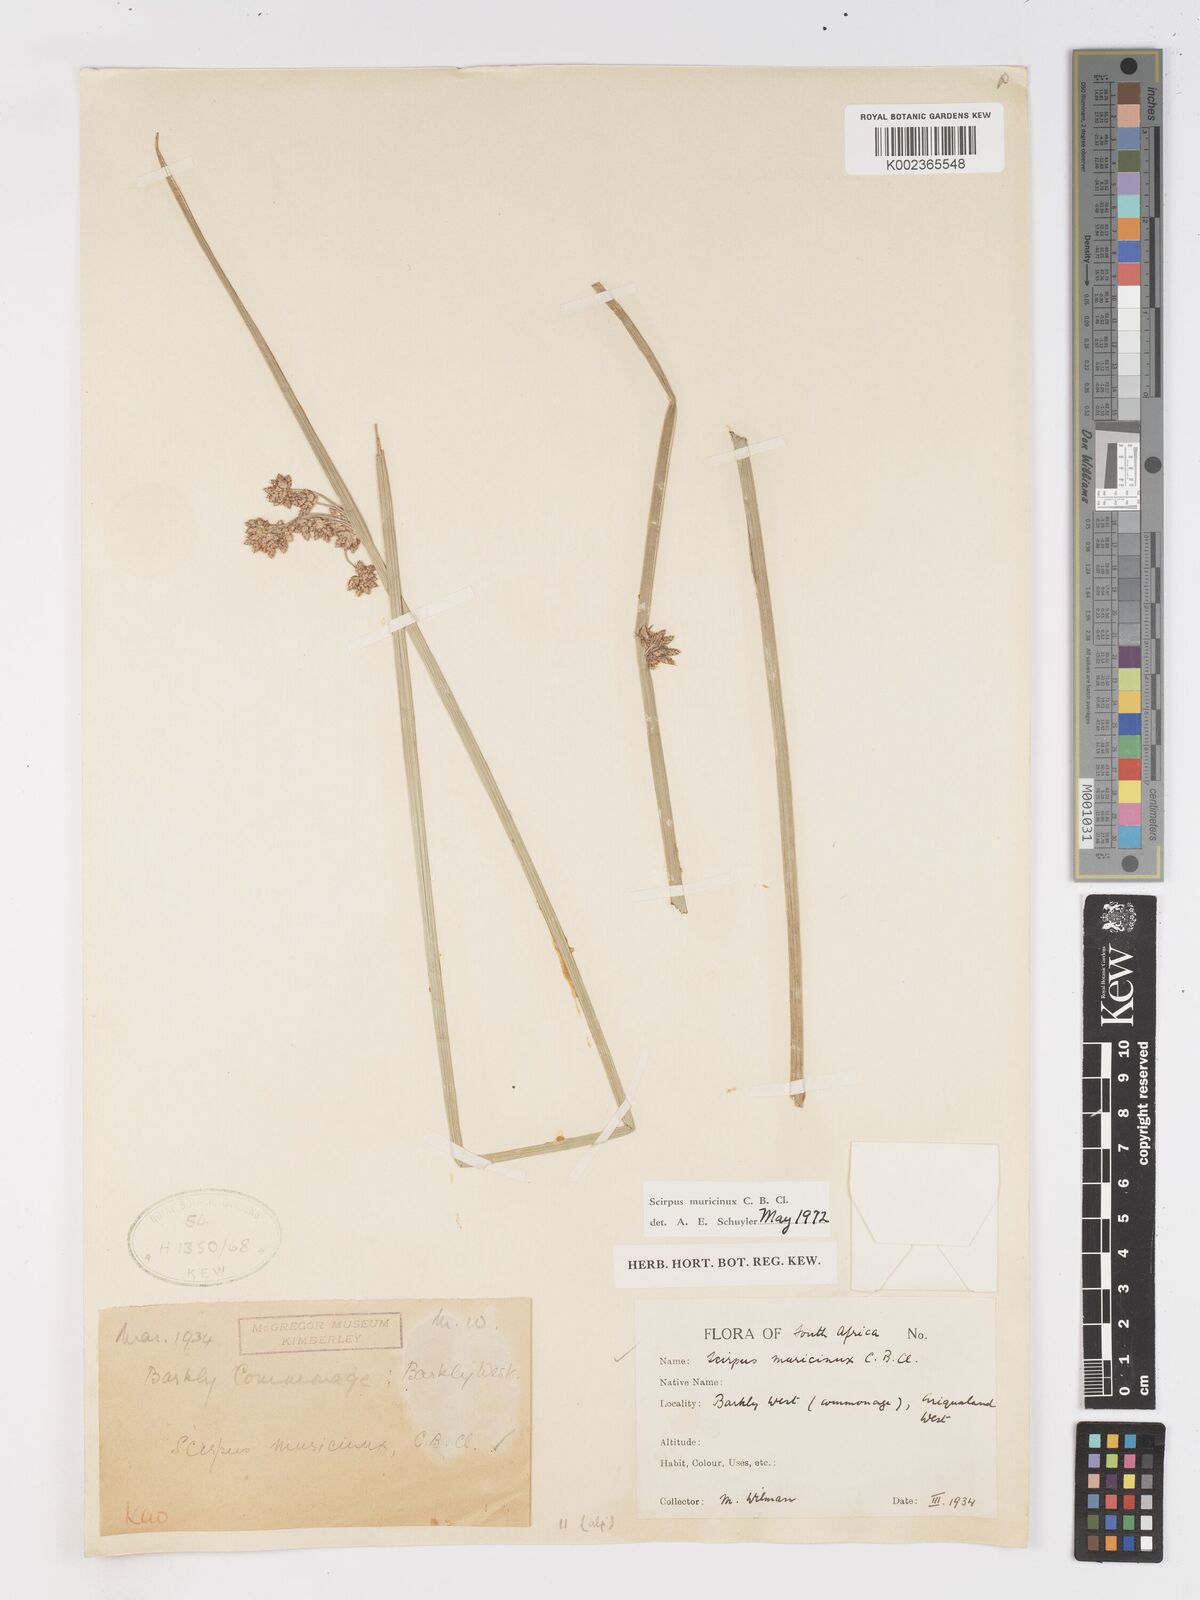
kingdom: Plantae
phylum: Tracheophyta
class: Liliopsida
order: Poales
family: Cyperaceae
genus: Schoenoplectiella
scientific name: Schoenoplectiella muricinux
